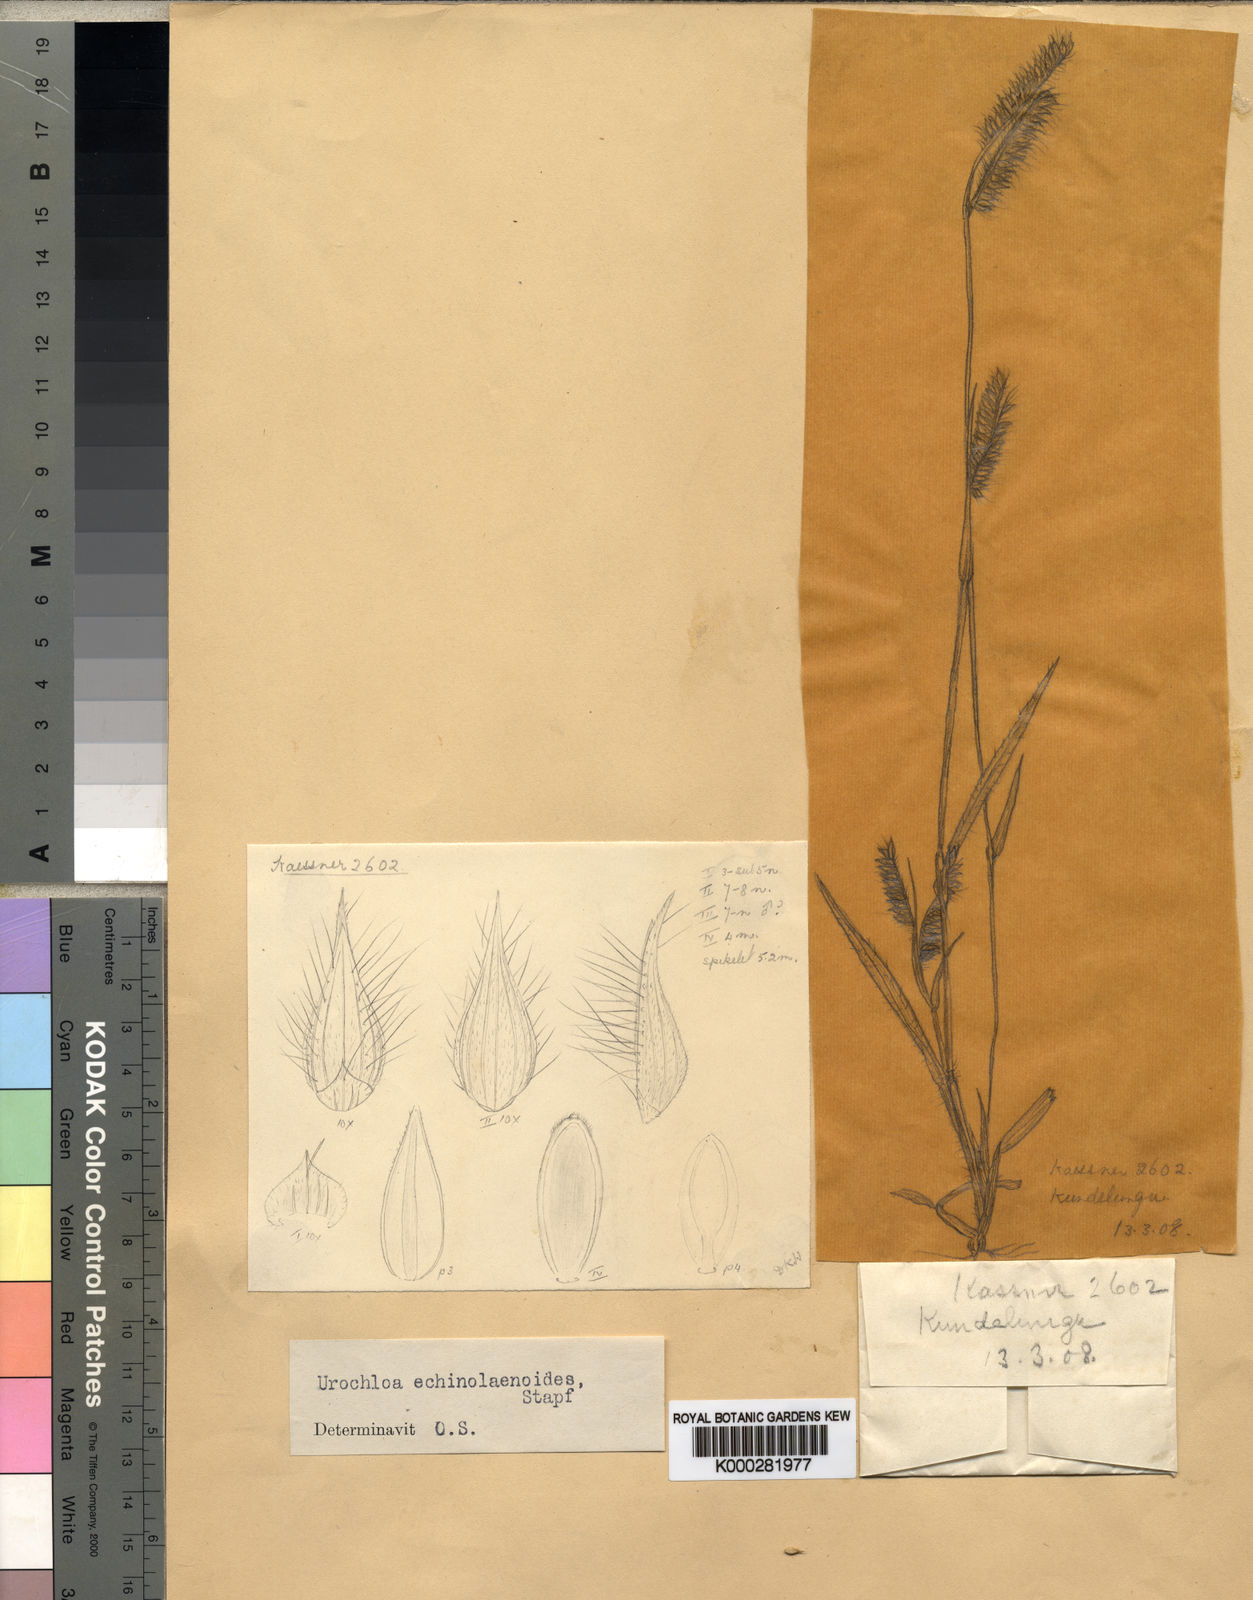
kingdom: Plantae
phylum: Tracheophyta
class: Liliopsida
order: Poales
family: Poaceae
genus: Urochloa
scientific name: Urochloa echinolaenoides
